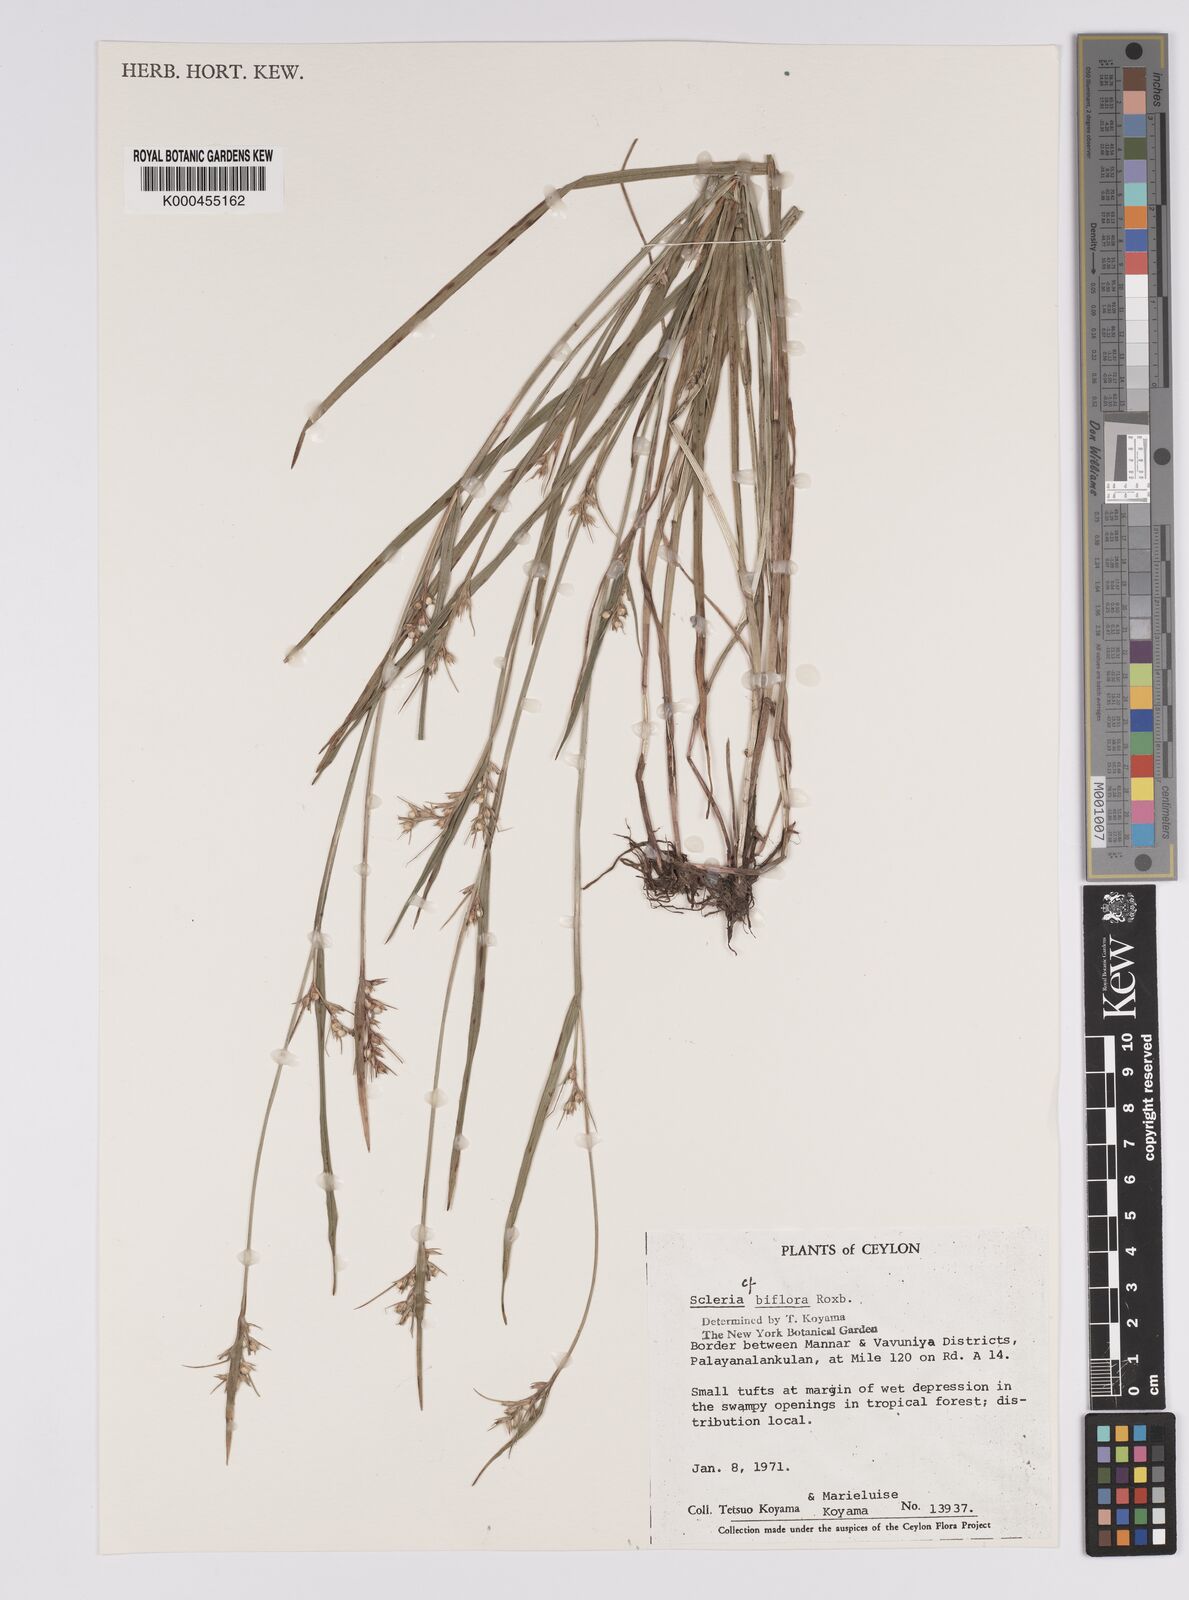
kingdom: Plantae
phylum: Tracheophyta
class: Liliopsida
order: Poales
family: Cyperaceae
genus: Scleria
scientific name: Scleria biflora
